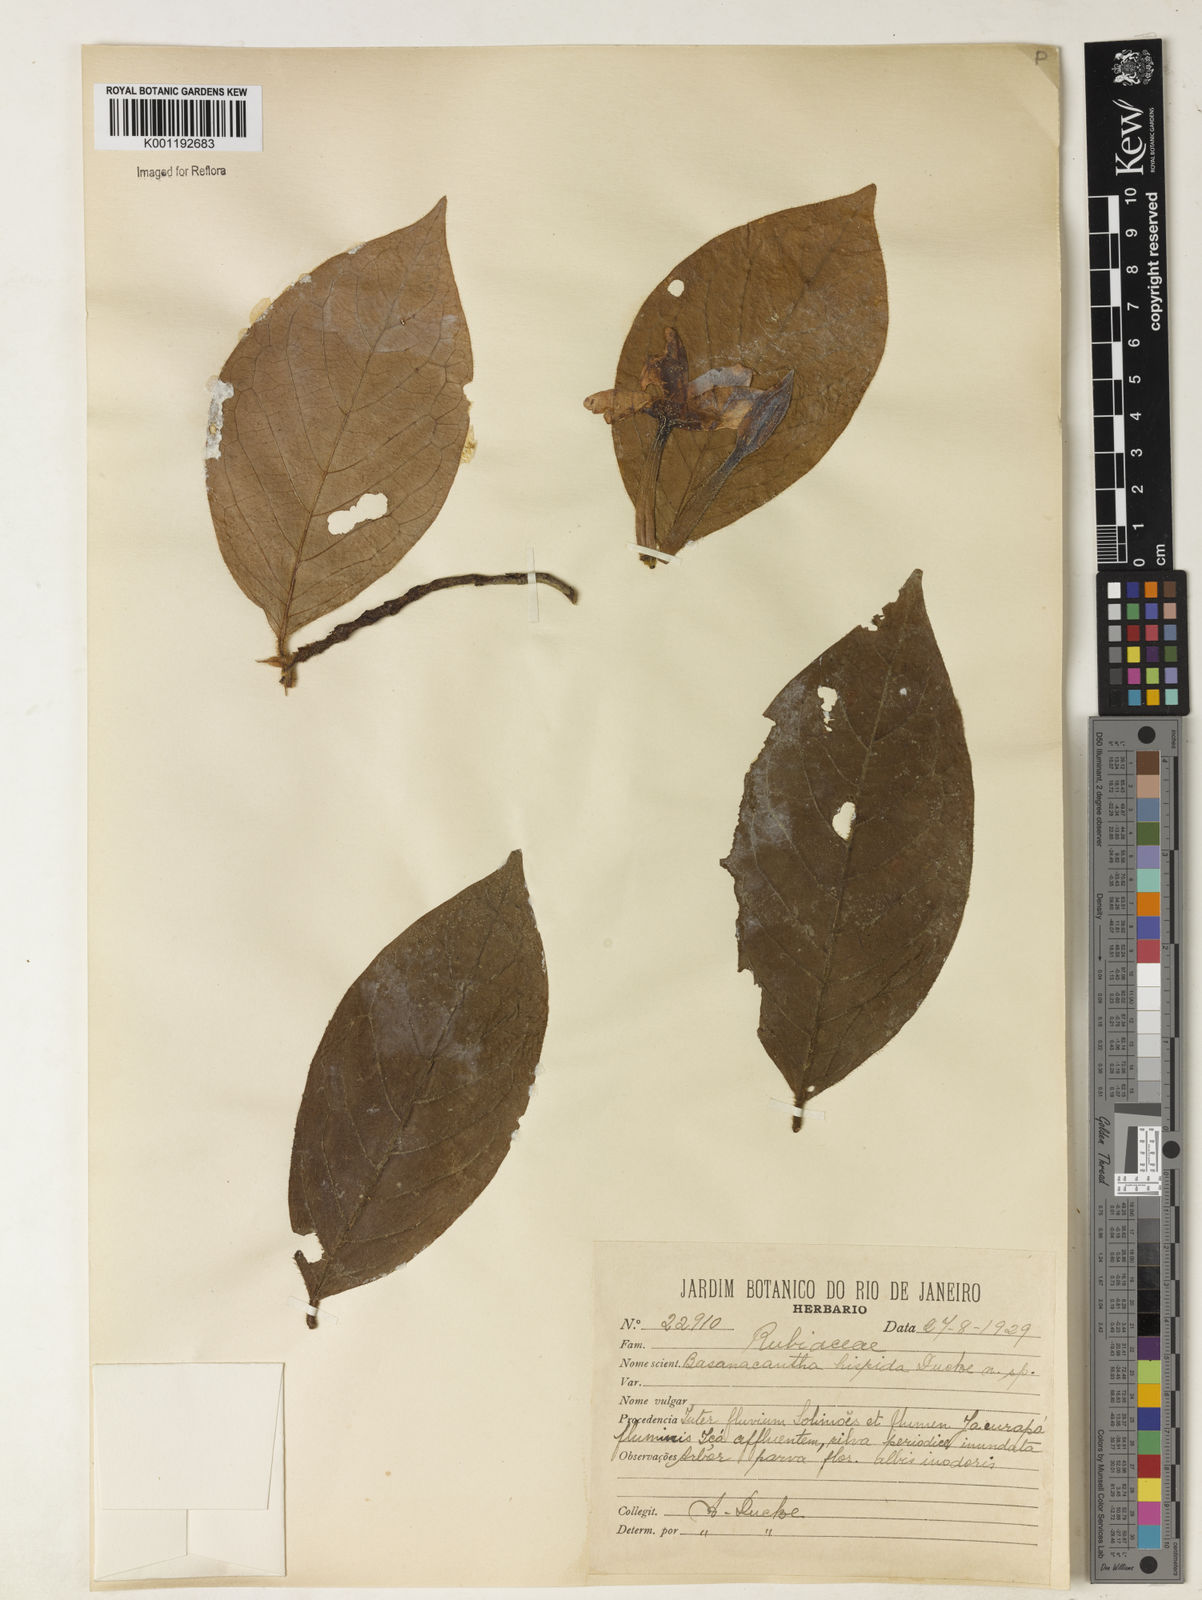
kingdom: Plantae
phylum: Tracheophyta
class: Magnoliopsida
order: Gentianales
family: Rubiaceae
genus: Randia
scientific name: Randia
